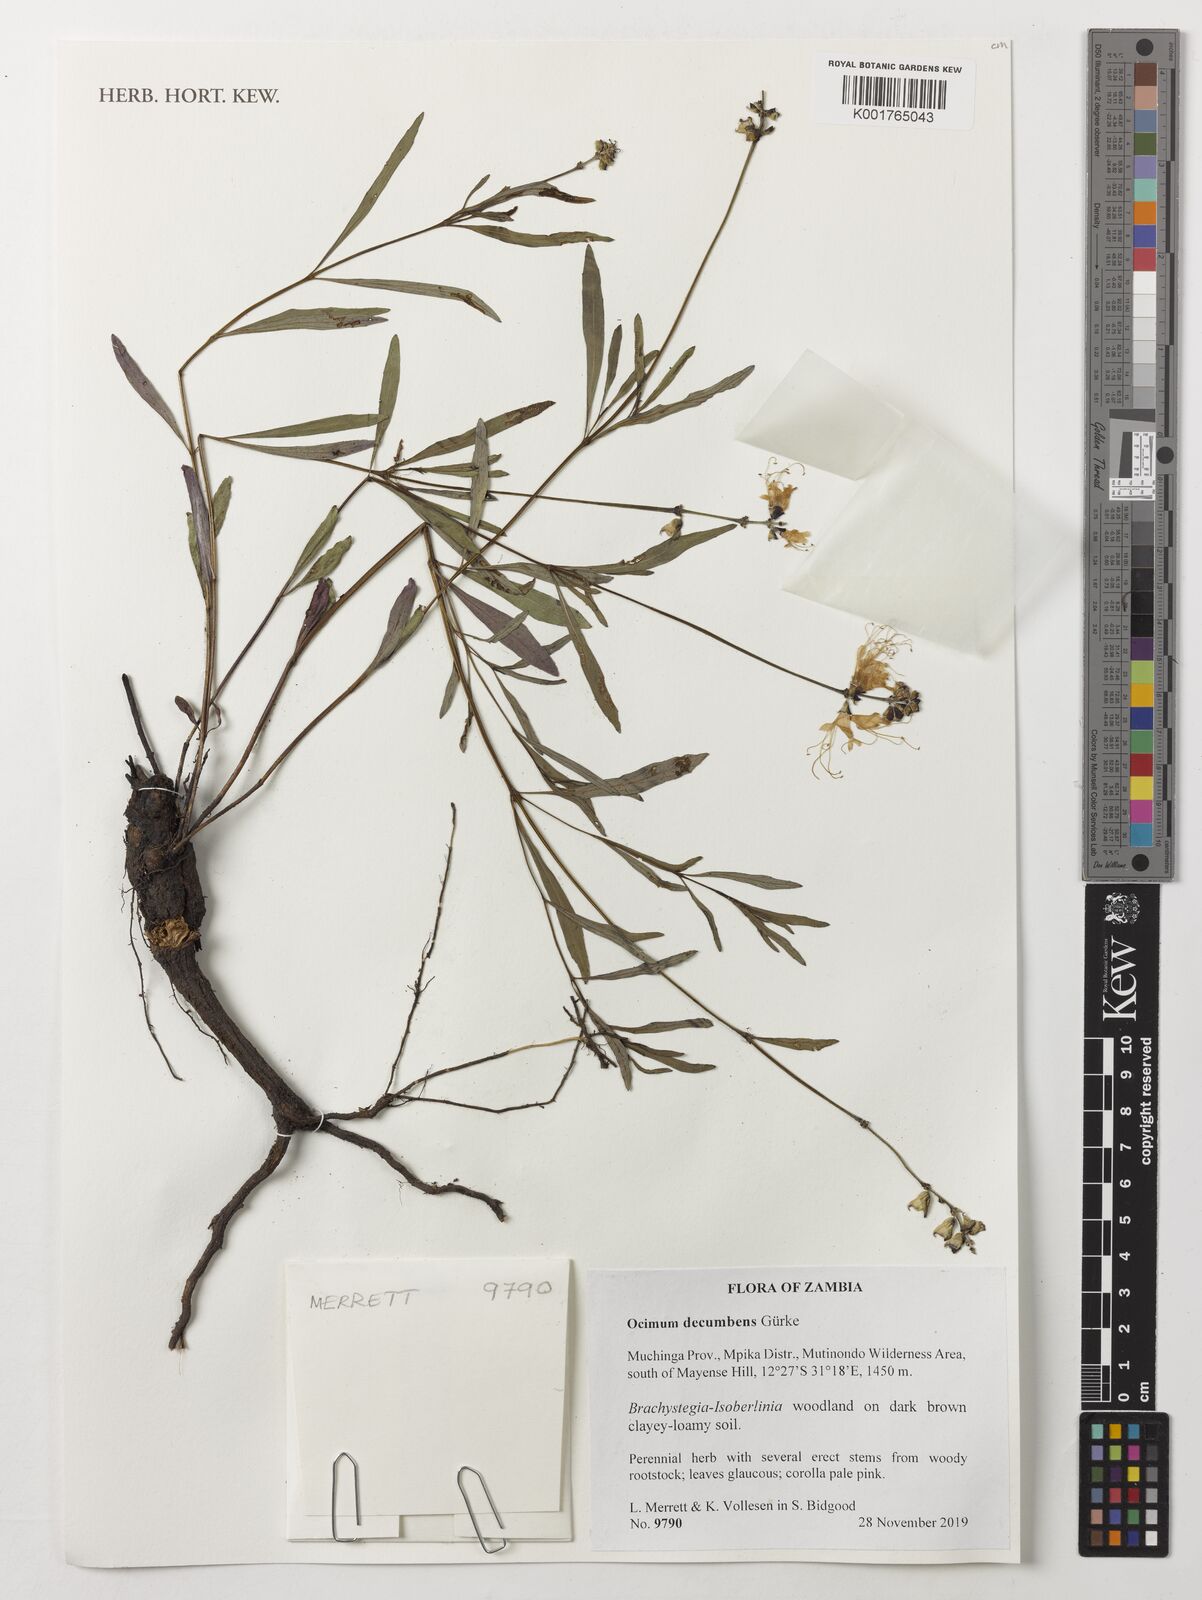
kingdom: Plantae
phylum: Tracheophyta
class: Magnoliopsida
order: Lamiales
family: Lamiaceae
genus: Ocimum
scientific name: Ocimum decumbens
